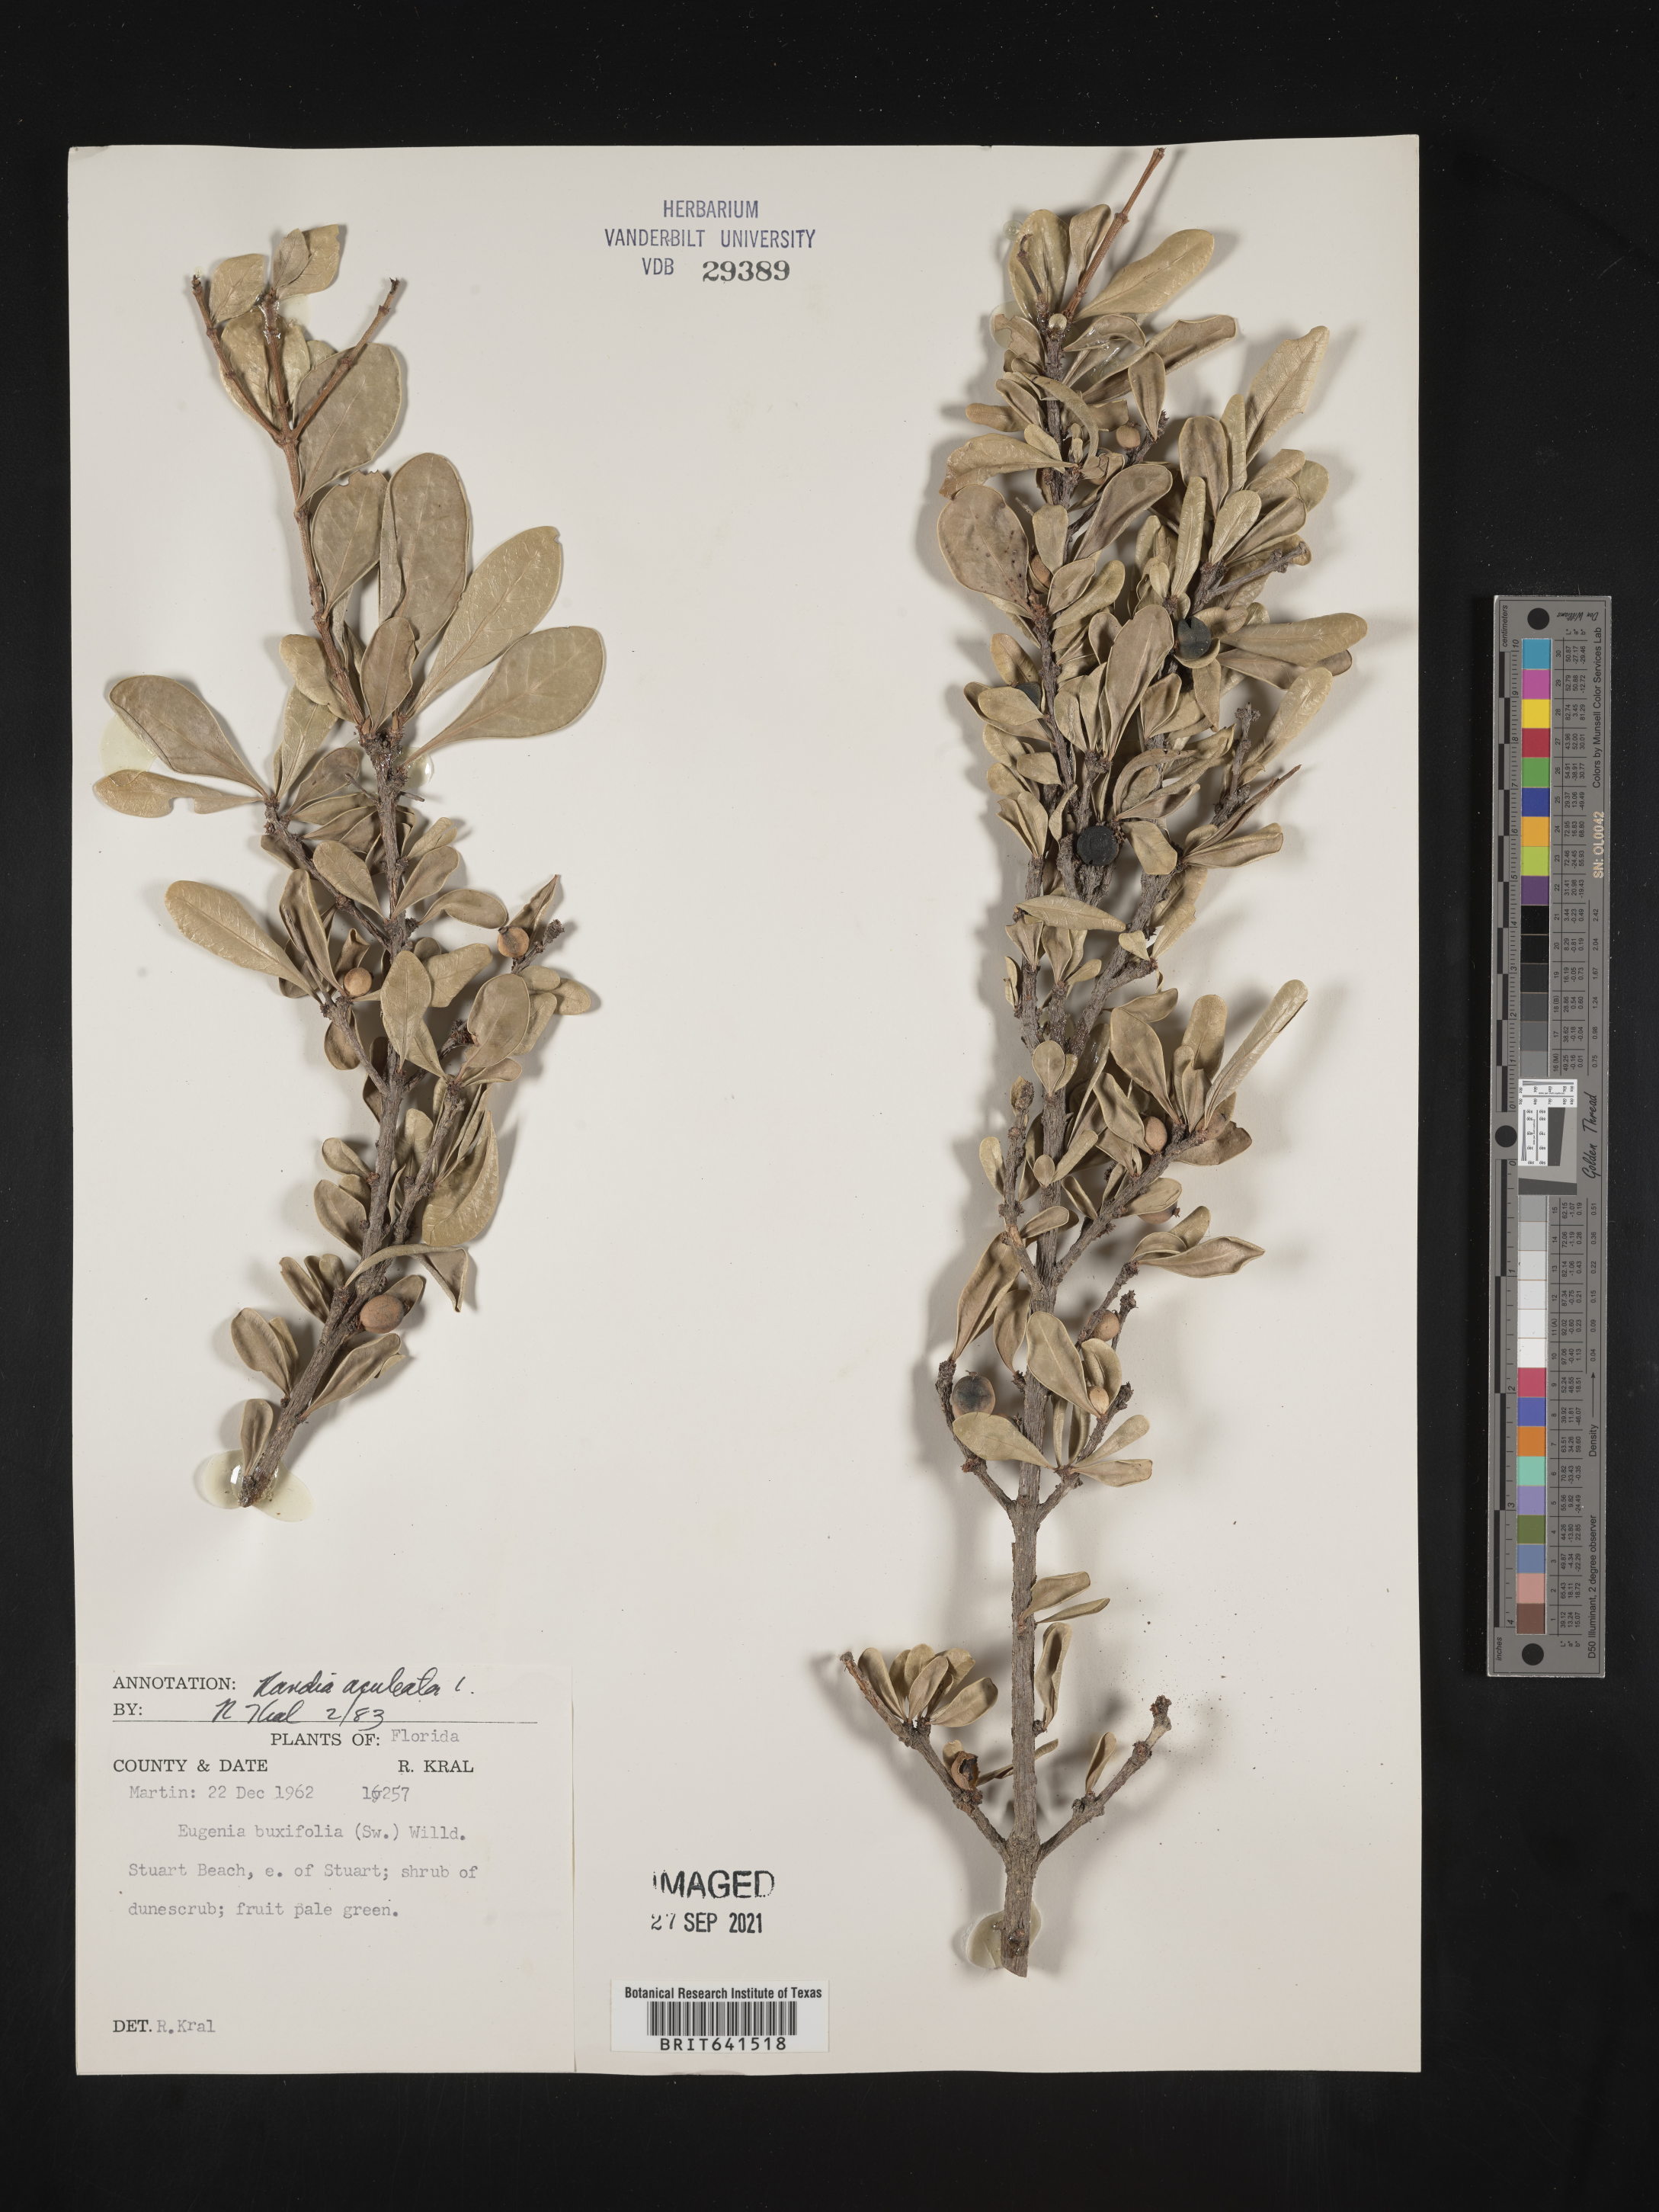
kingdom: Plantae
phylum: Tracheophyta
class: Magnoliopsida
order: Gentianales
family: Rubiaceae
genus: Randia
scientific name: Randia aculeata
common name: Inkberry
